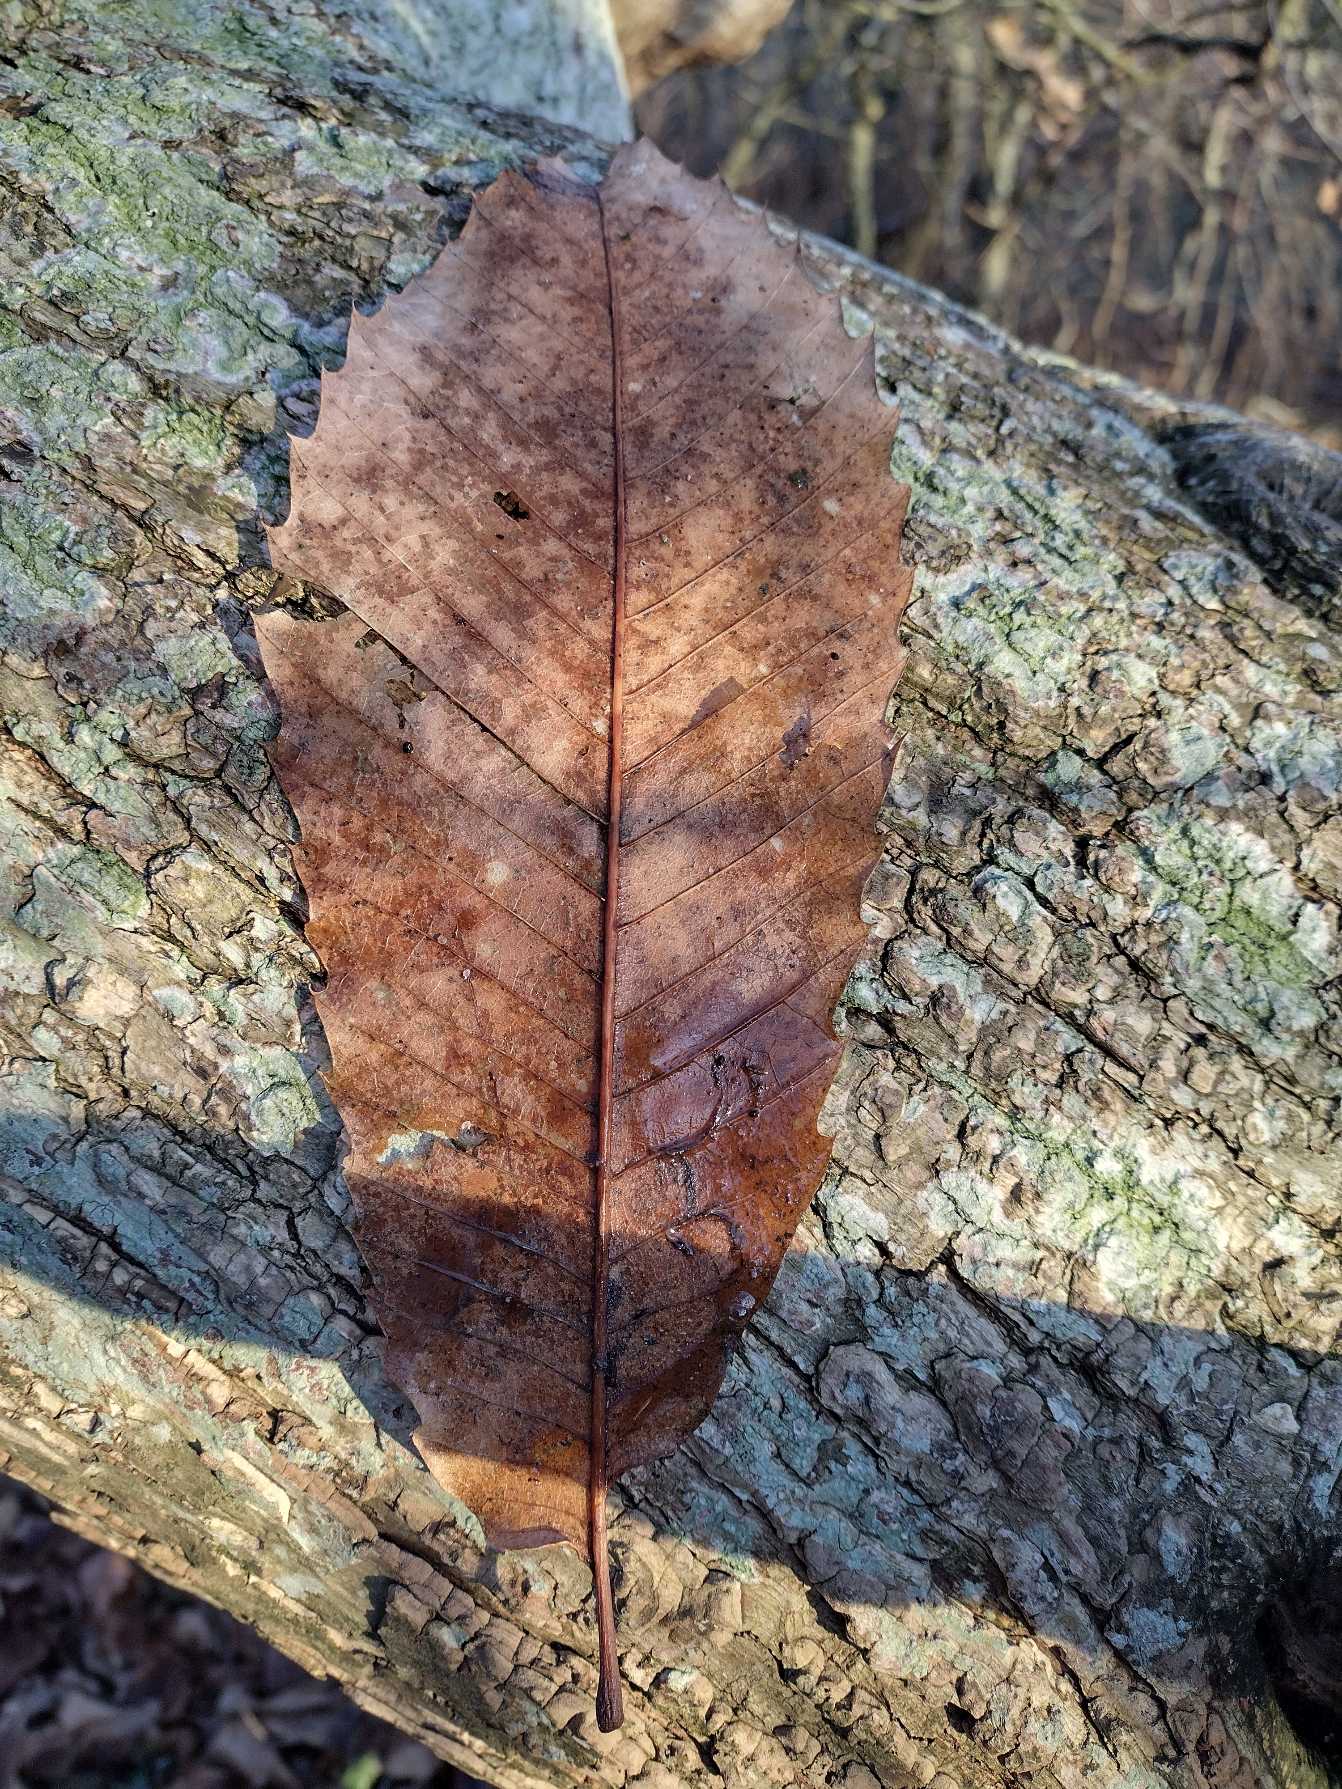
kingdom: Plantae
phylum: Tracheophyta
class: Magnoliopsida
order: Fagales
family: Fagaceae
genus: Castanea
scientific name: Castanea sativa
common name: Ægte kastanie
